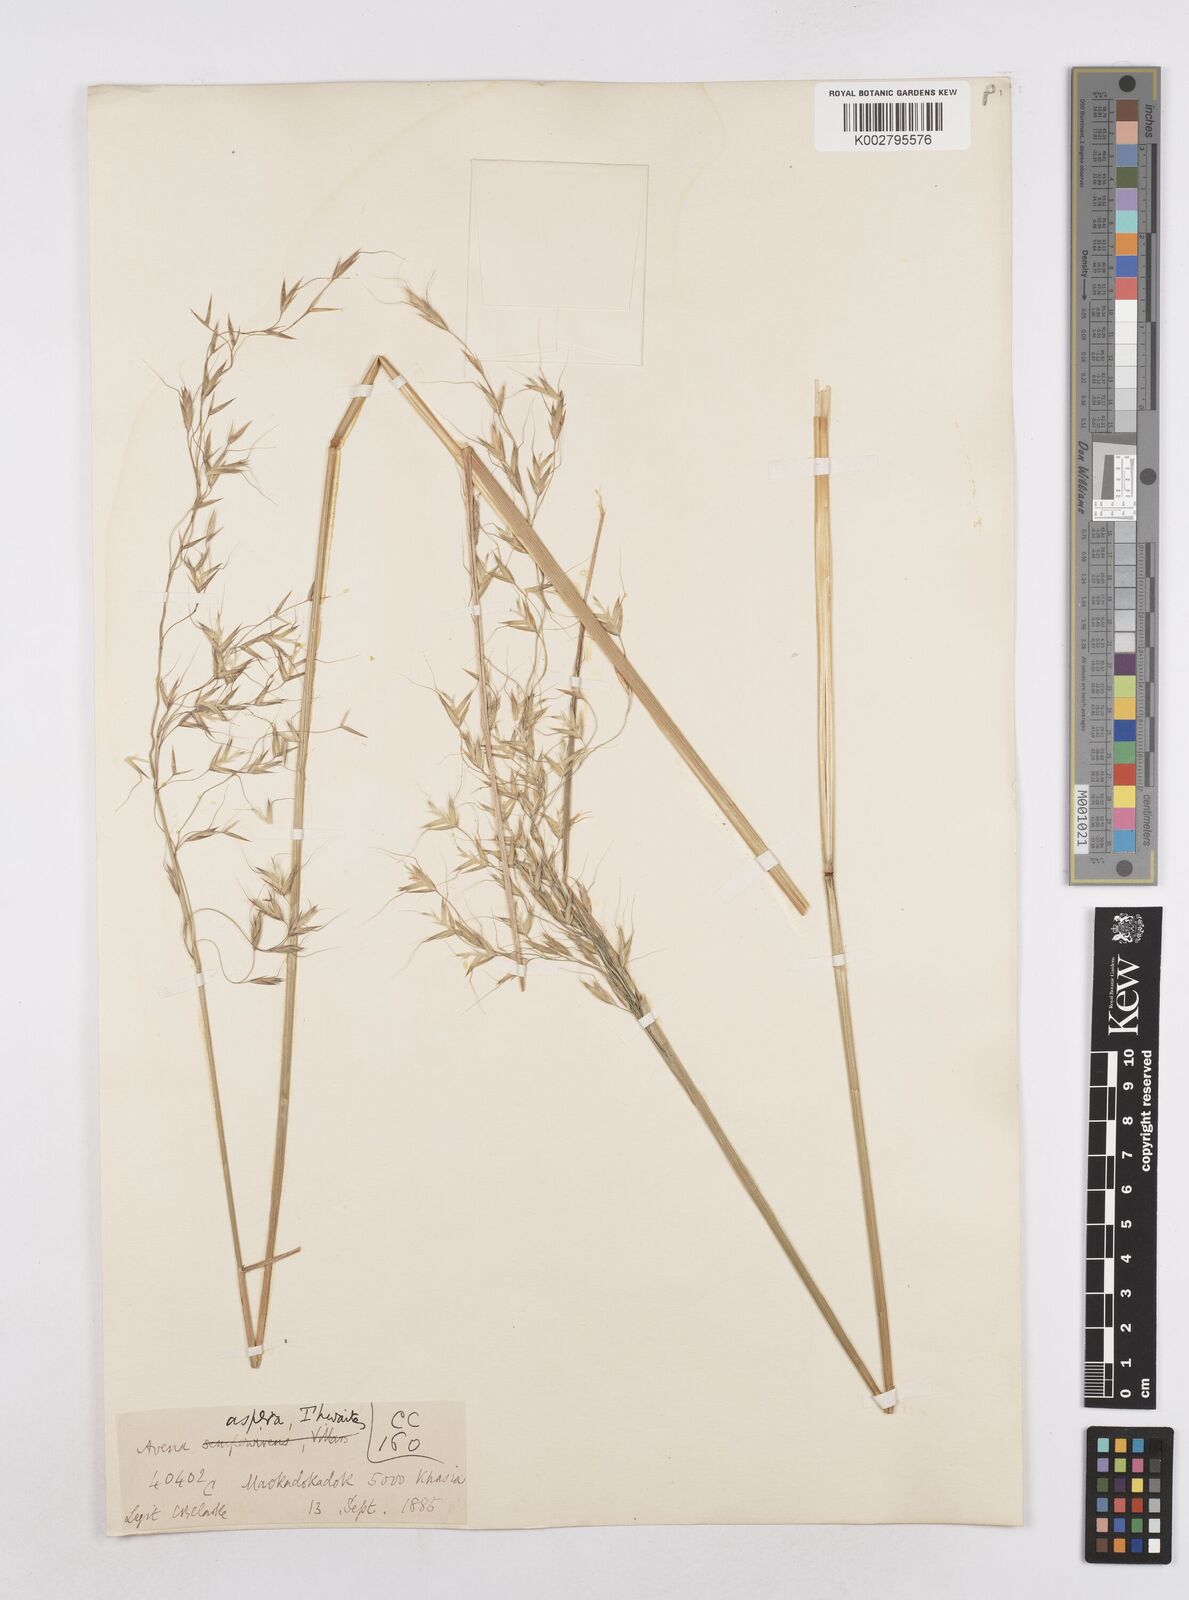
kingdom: Plantae
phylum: Tracheophyta
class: Liliopsida
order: Poales
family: Poaceae
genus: Trisetopsis
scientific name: Trisetopsis junghuhnii
